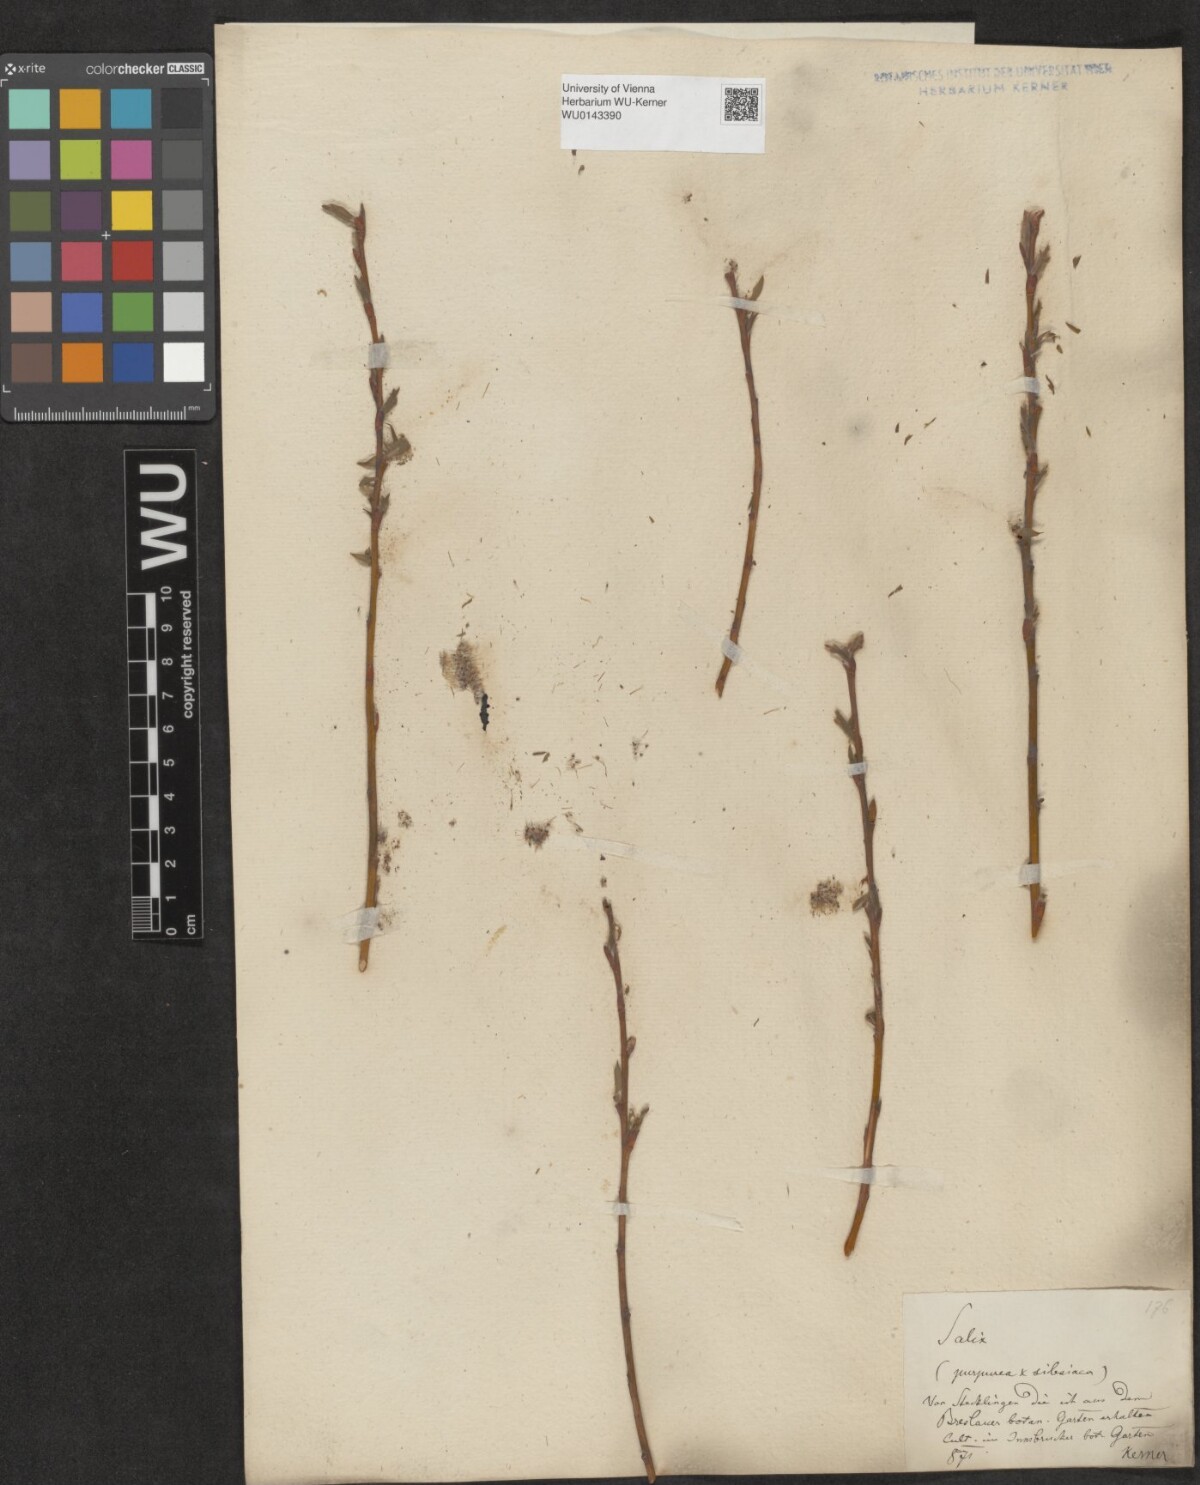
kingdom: Plantae
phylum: Tracheophyta
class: Magnoliopsida
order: Malpighiales
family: Salicaceae
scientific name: Salicaceae
